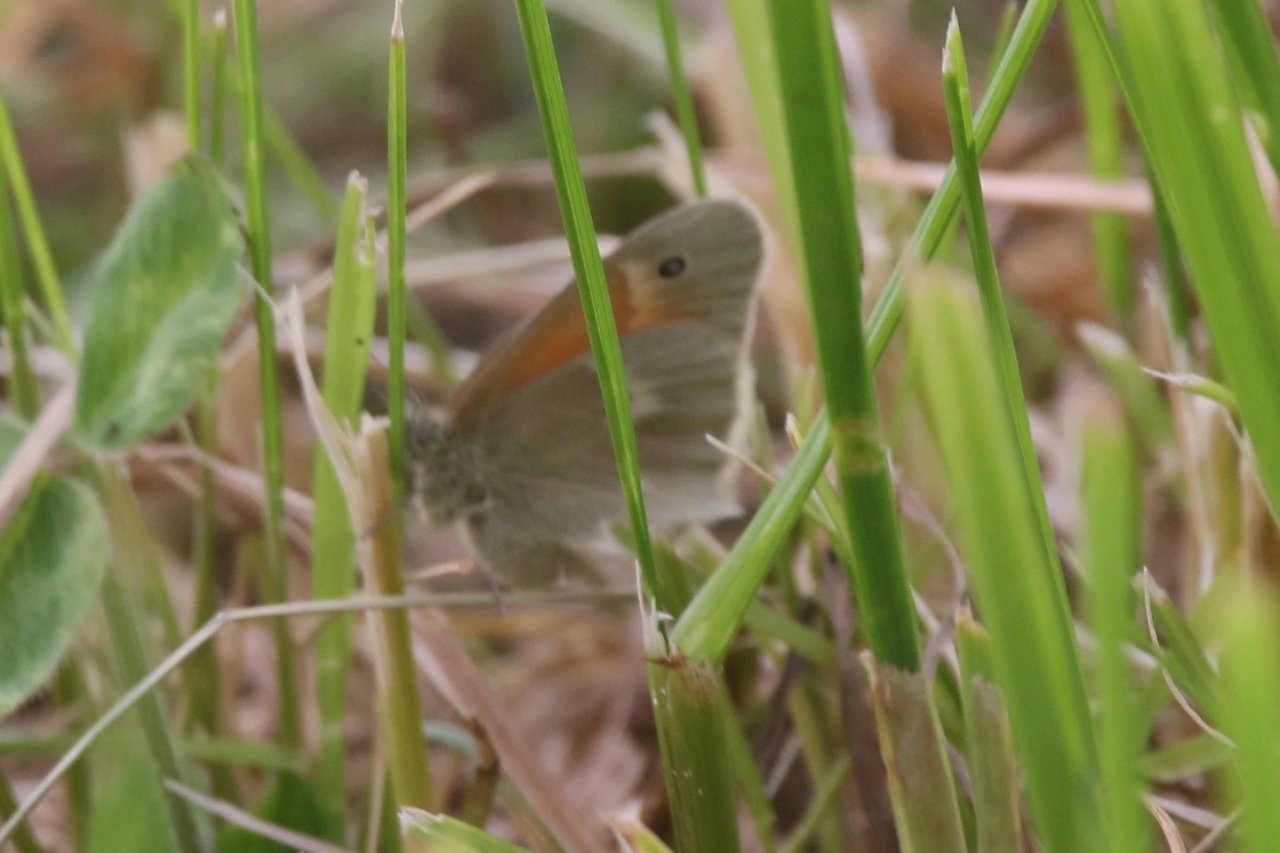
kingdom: Animalia
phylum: Arthropoda
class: Insecta
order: Lepidoptera
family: Nymphalidae
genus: Coenonympha
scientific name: Coenonympha tullia
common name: Large Heath
